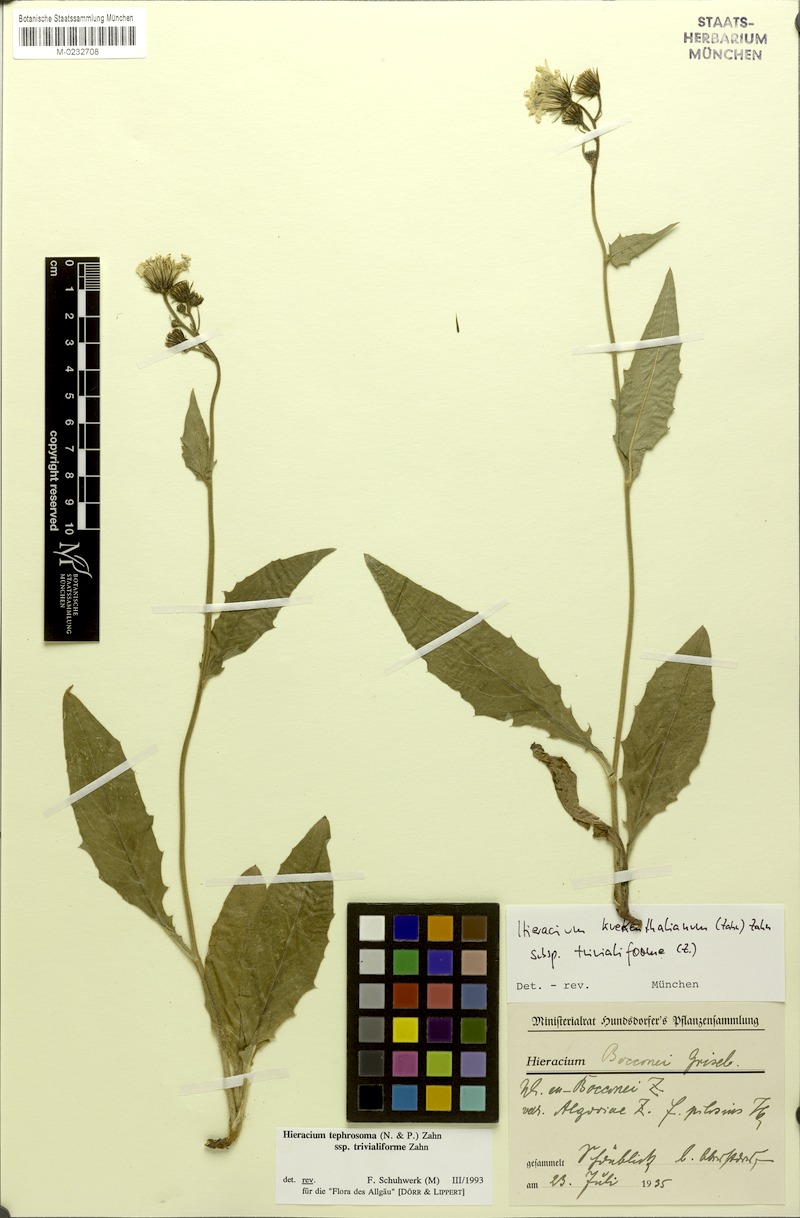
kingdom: Plantae
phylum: Tracheophyta
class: Magnoliopsida
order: Asterales
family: Asteraceae
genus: Hieracium
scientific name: Hieracium kuekenthalianum
